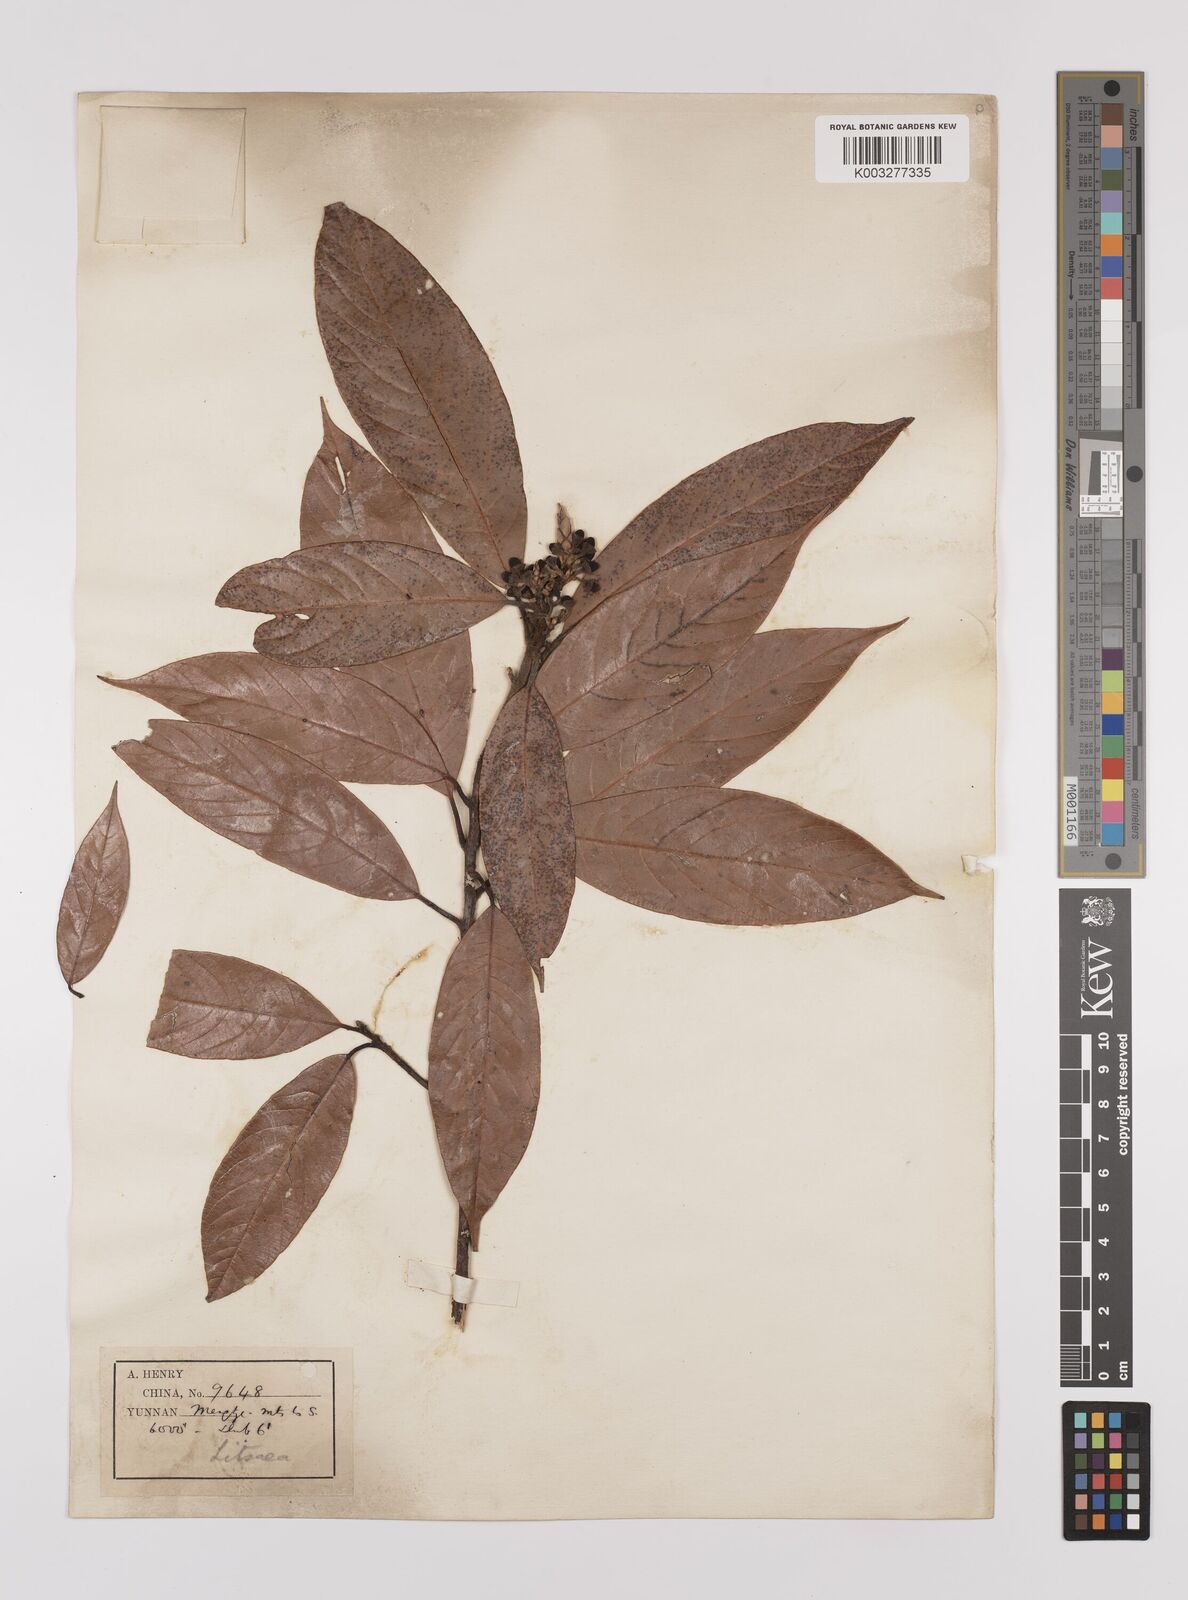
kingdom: Plantae
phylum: Tracheophyta
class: Magnoliopsida
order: Laurales
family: Lauraceae
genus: Litsea
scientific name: Litsea elongata
